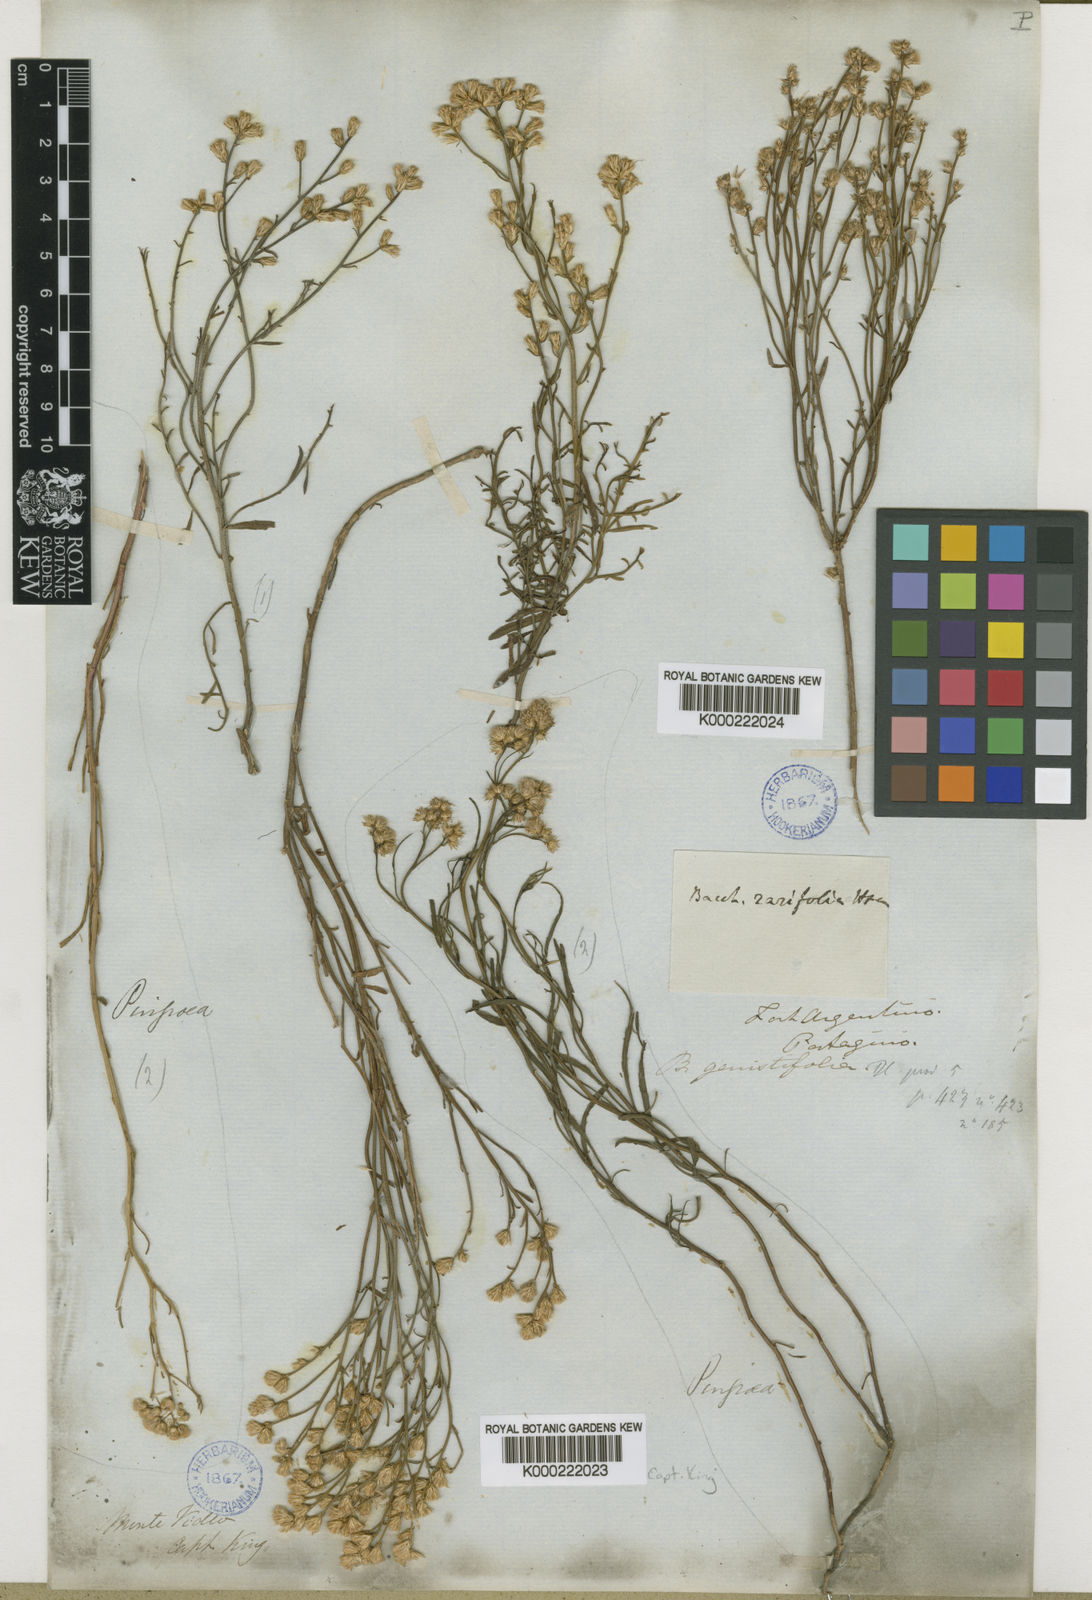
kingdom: Plantae
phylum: Tracheophyta
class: Magnoliopsida
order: Asterales
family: Asteraceae
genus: Baccharis
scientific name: Baccharis genistifolia
